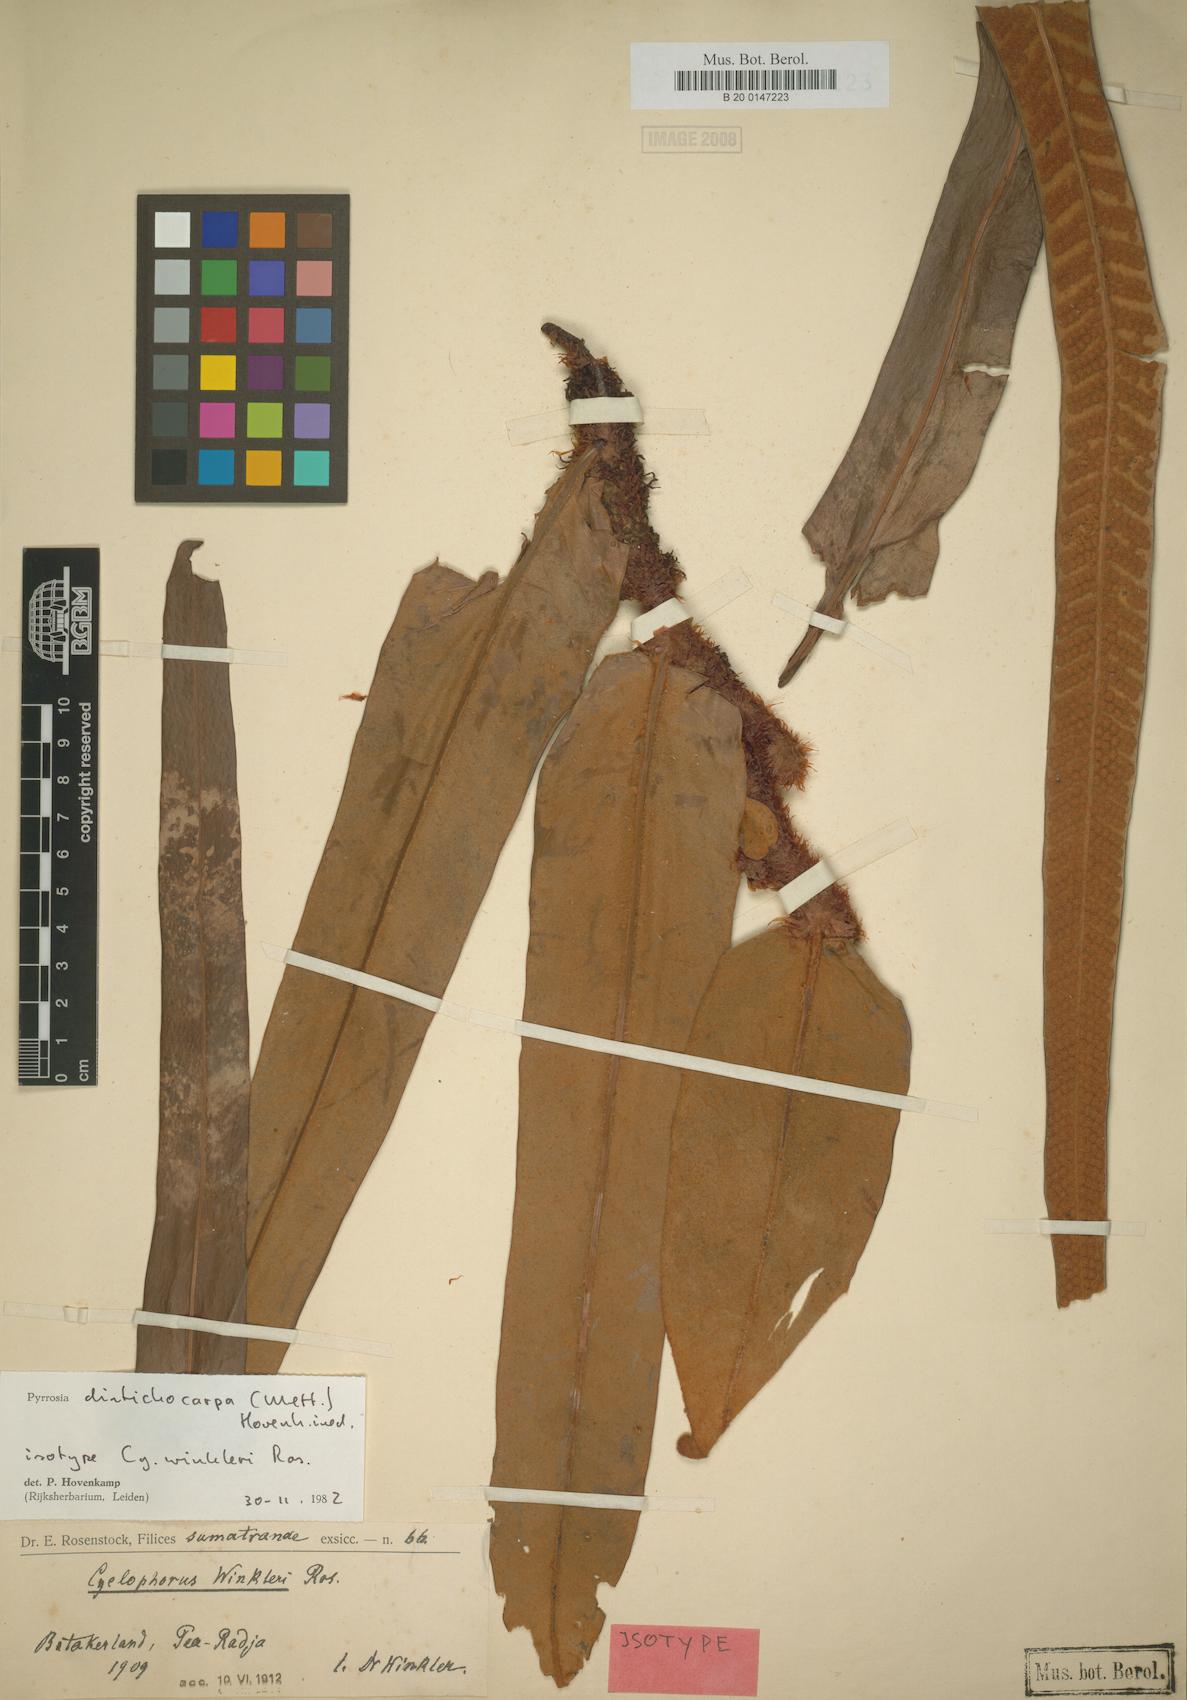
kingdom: Plantae
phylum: Tracheophyta
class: Polypodiopsida
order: Polypodiales
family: Polypodiaceae
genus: Pyrrosia
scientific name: Pyrrosia distichocarpa
